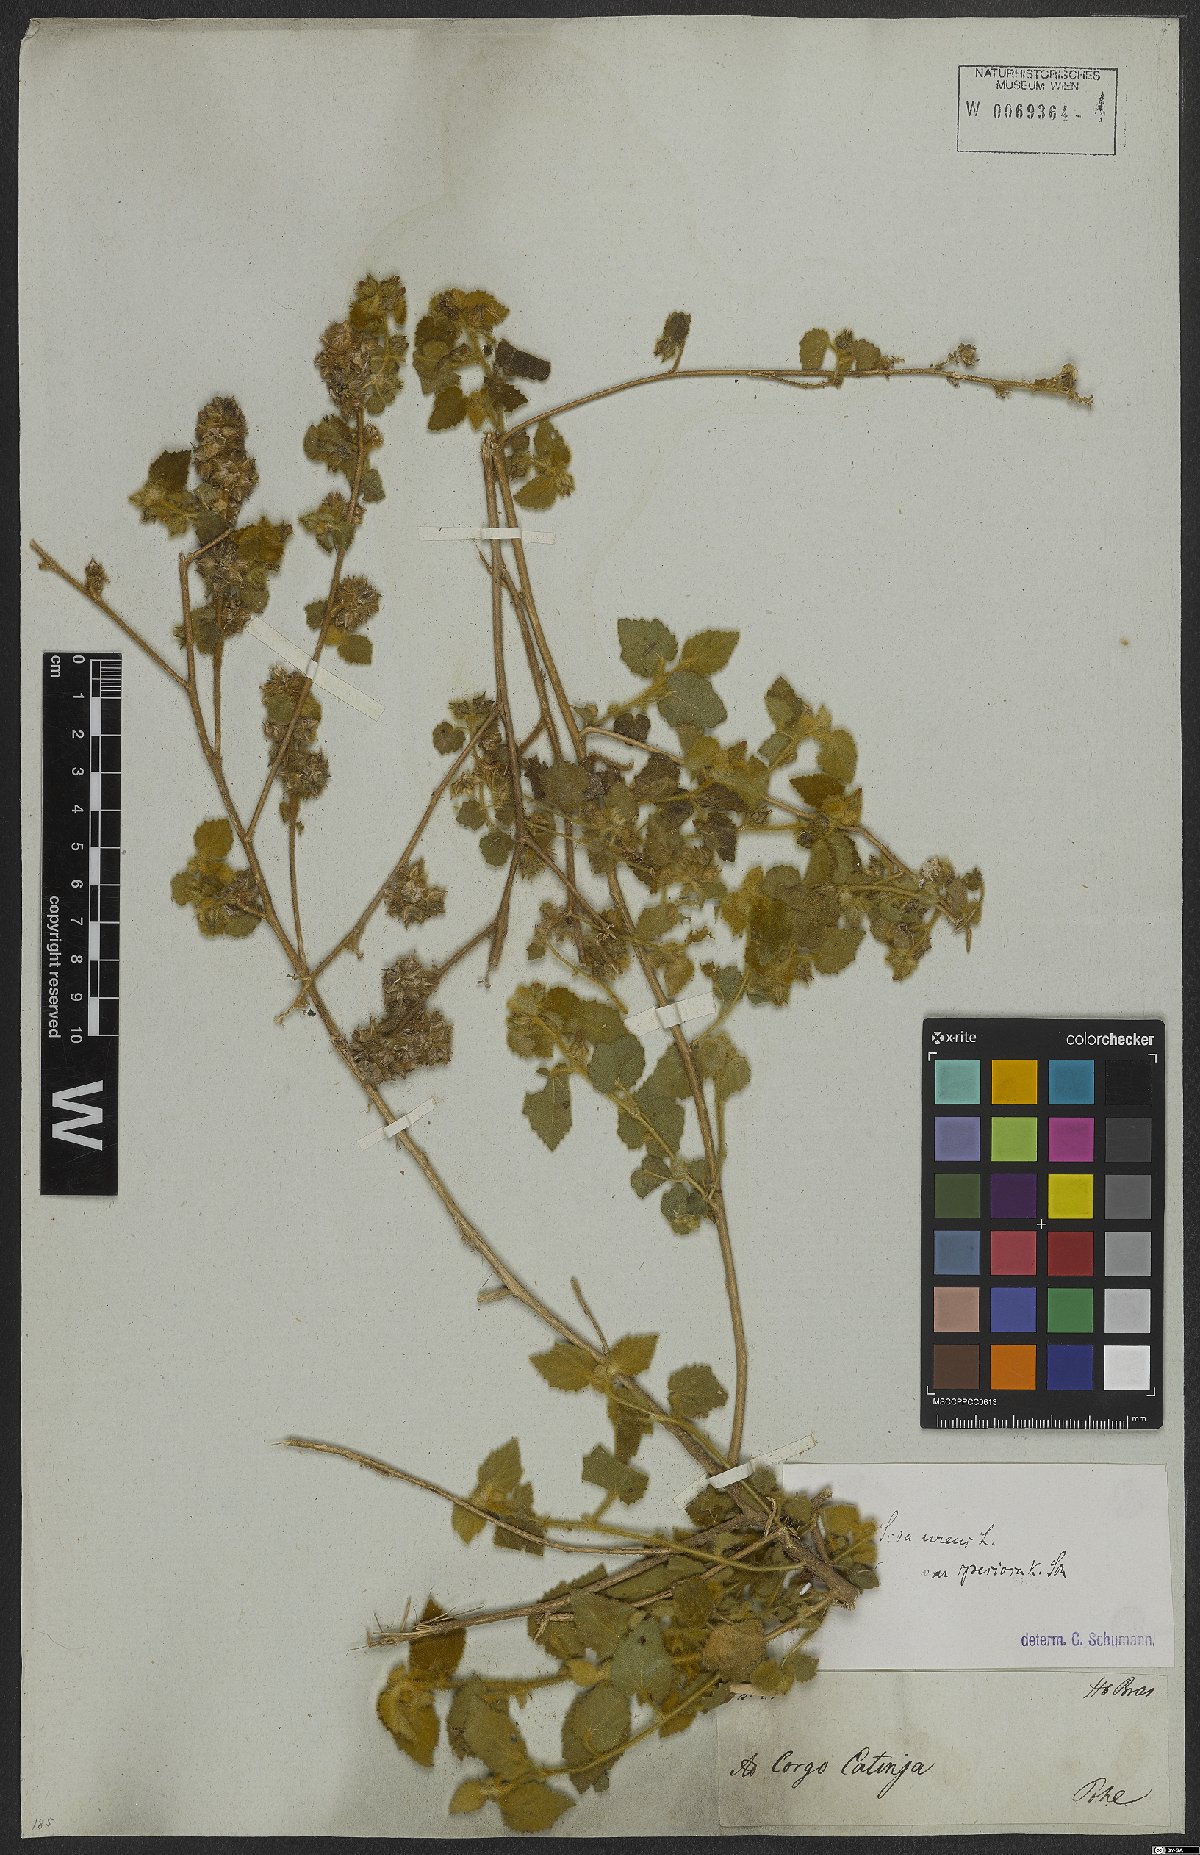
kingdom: Plantae
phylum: Tracheophyta
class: Magnoliopsida
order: Malvales
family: Malvaceae
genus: Sida
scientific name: Sida urens
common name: Tropical fanpetals
